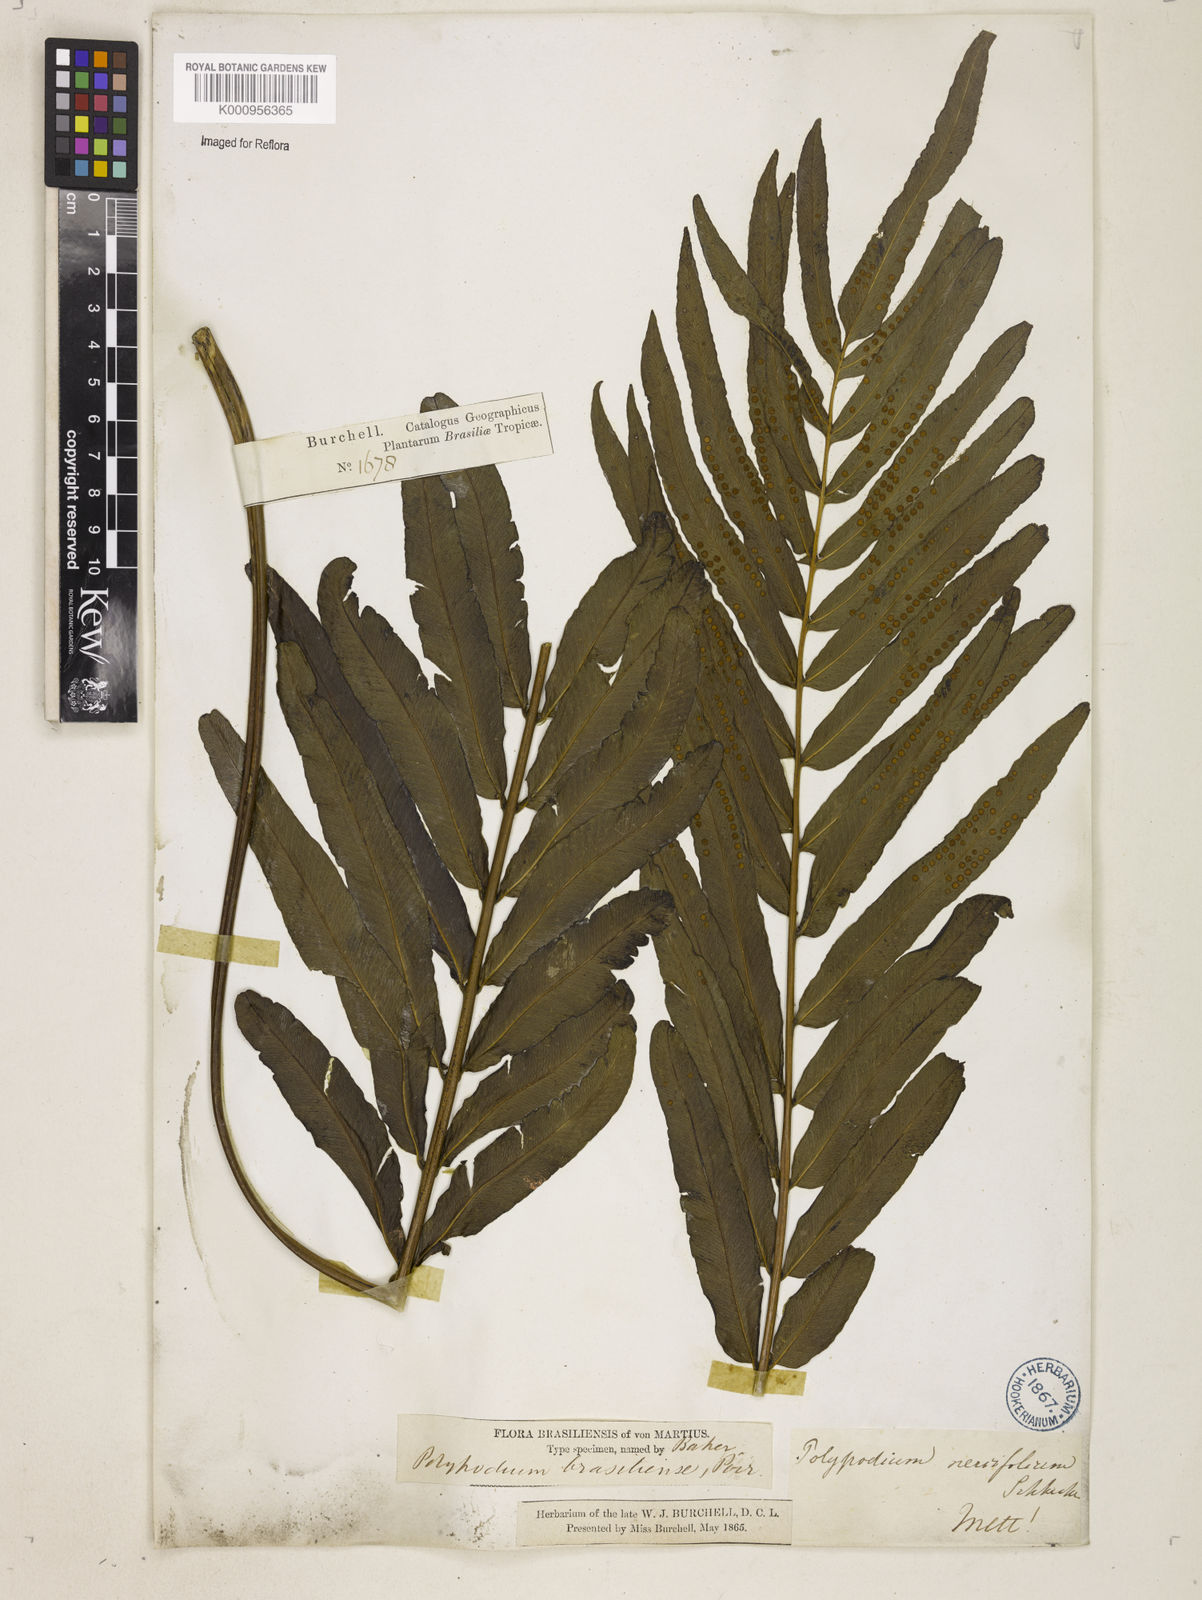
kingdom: Plantae
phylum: Tracheophyta
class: Polypodiopsida
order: Polypodiales
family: Polypodiaceae
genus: Serpocaulon
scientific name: Serpocaulon triseriale
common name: Angle-vein fern
